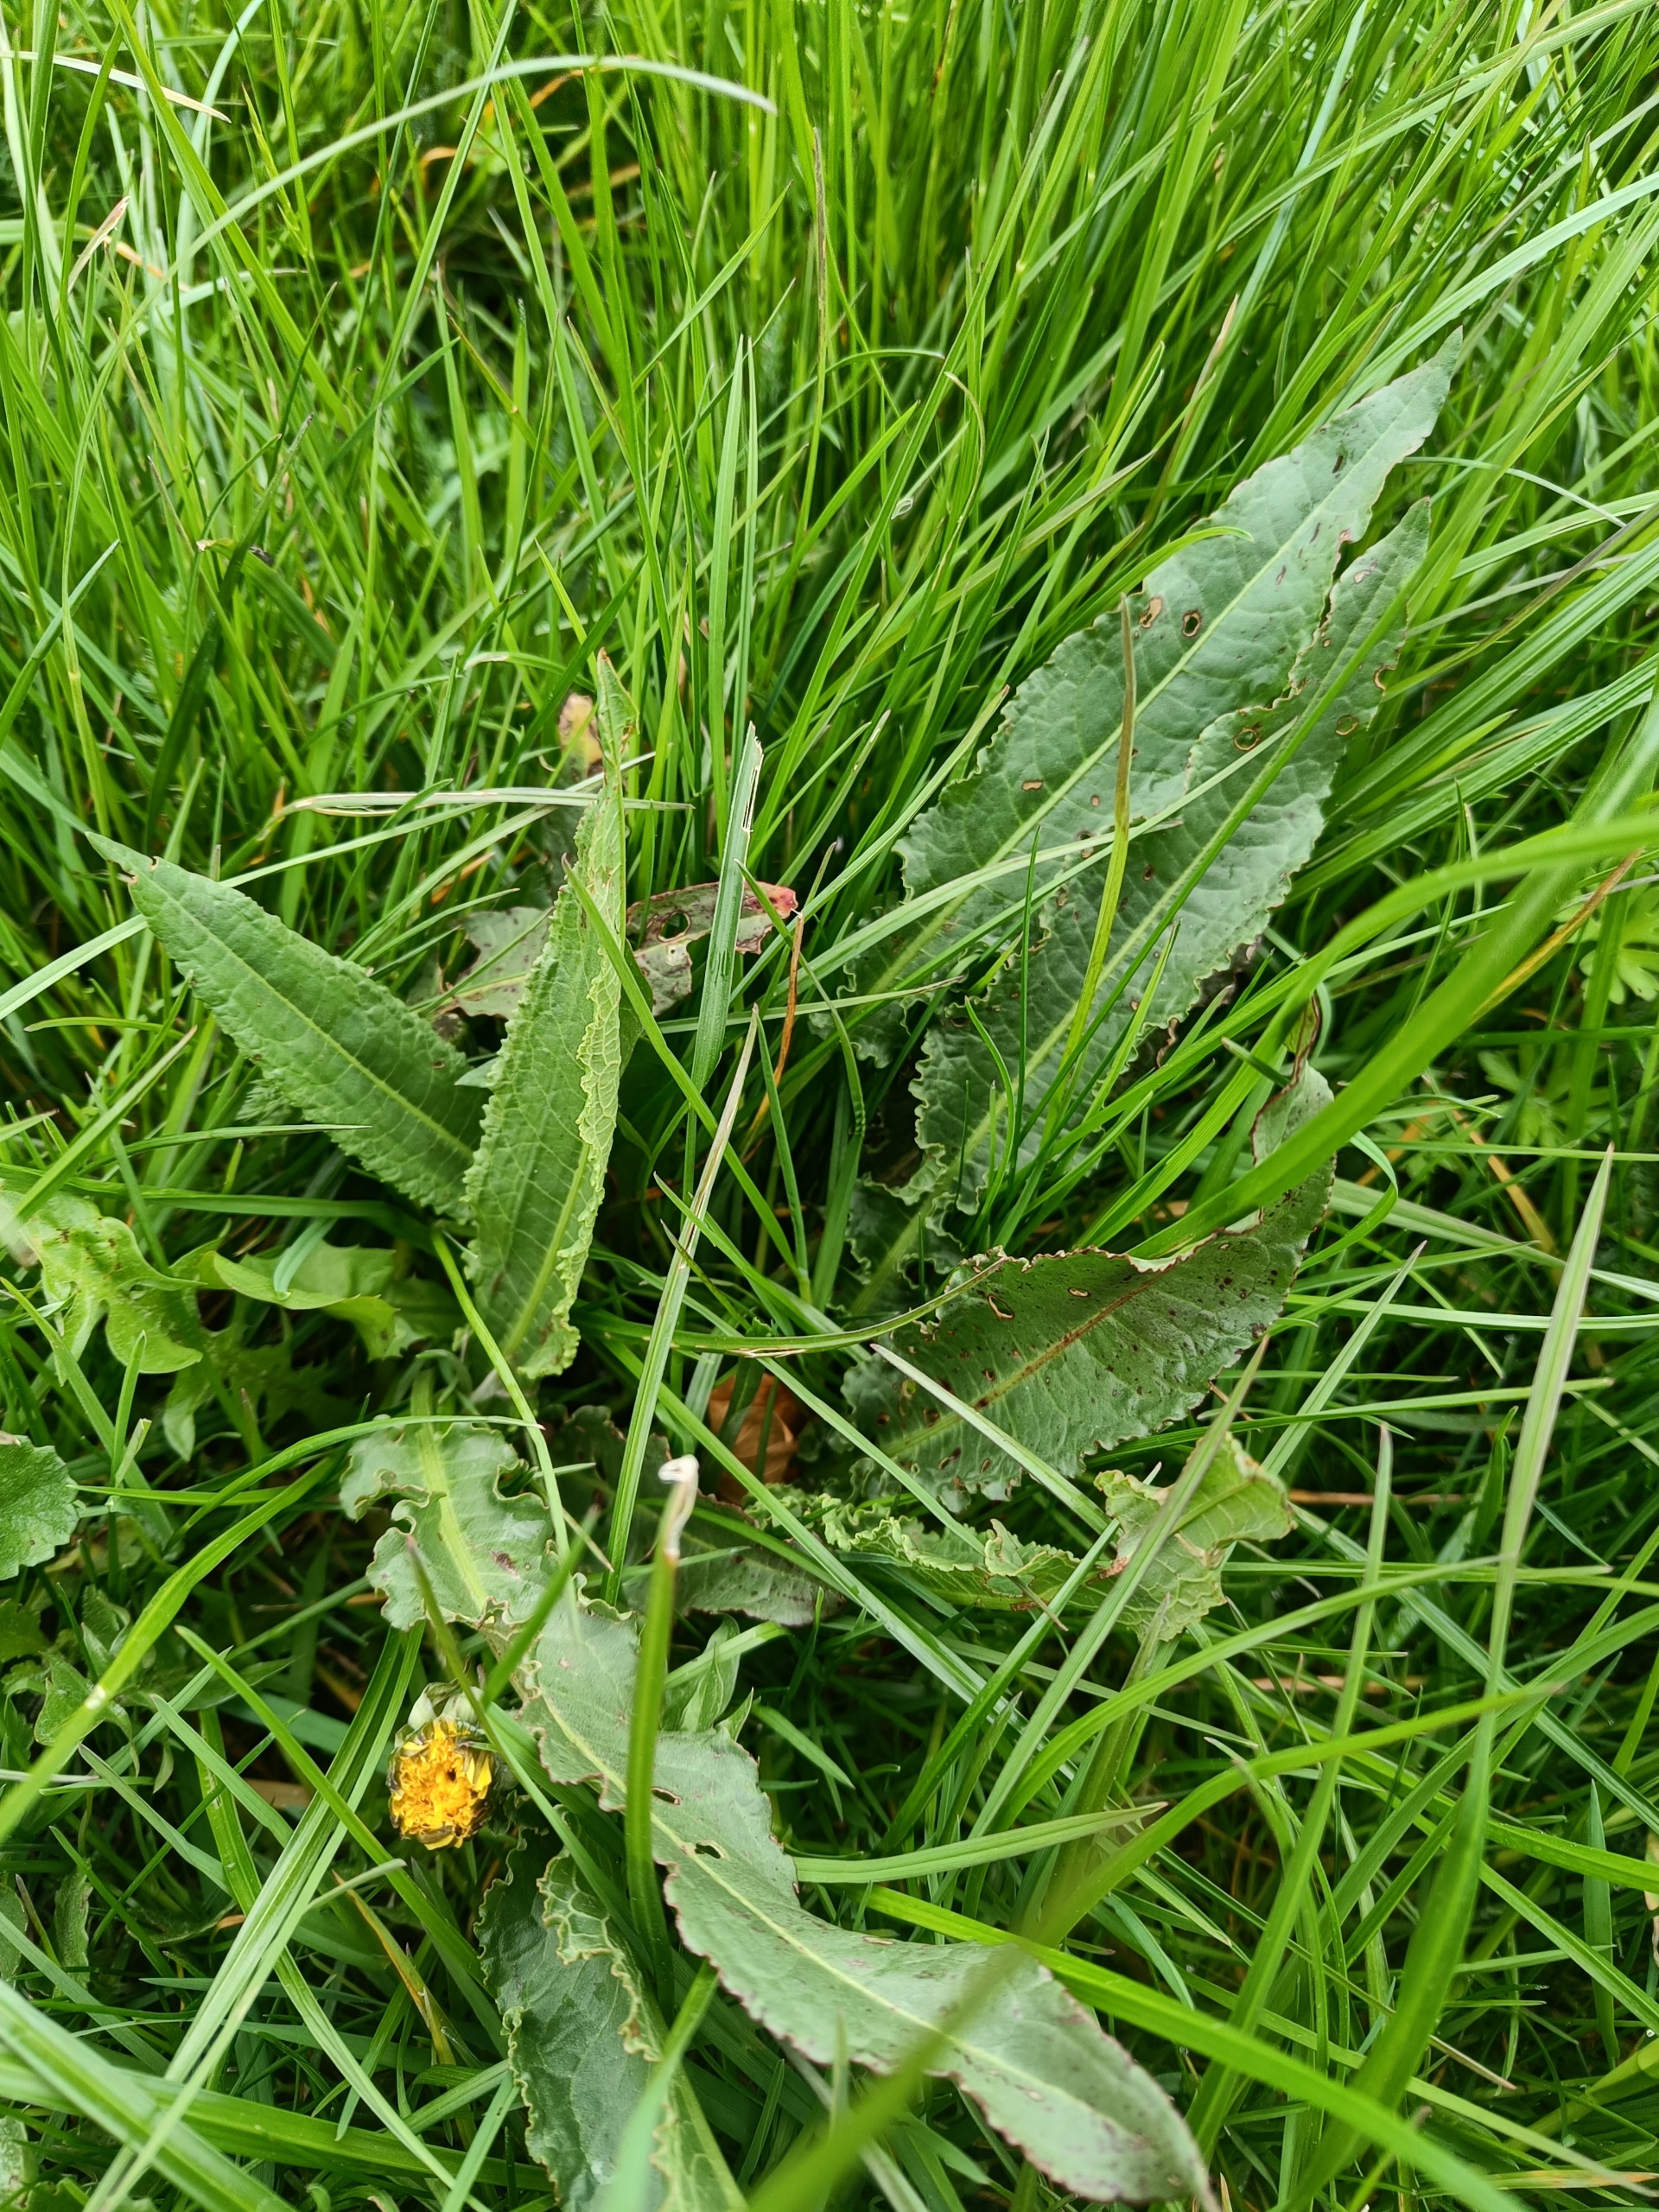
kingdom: Plantae
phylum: Tracheophyta
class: Magnoliopsida
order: Caryophyllales
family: Polygonaceae
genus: Rumex
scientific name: Rumex crispus
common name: Kruset skræppe
